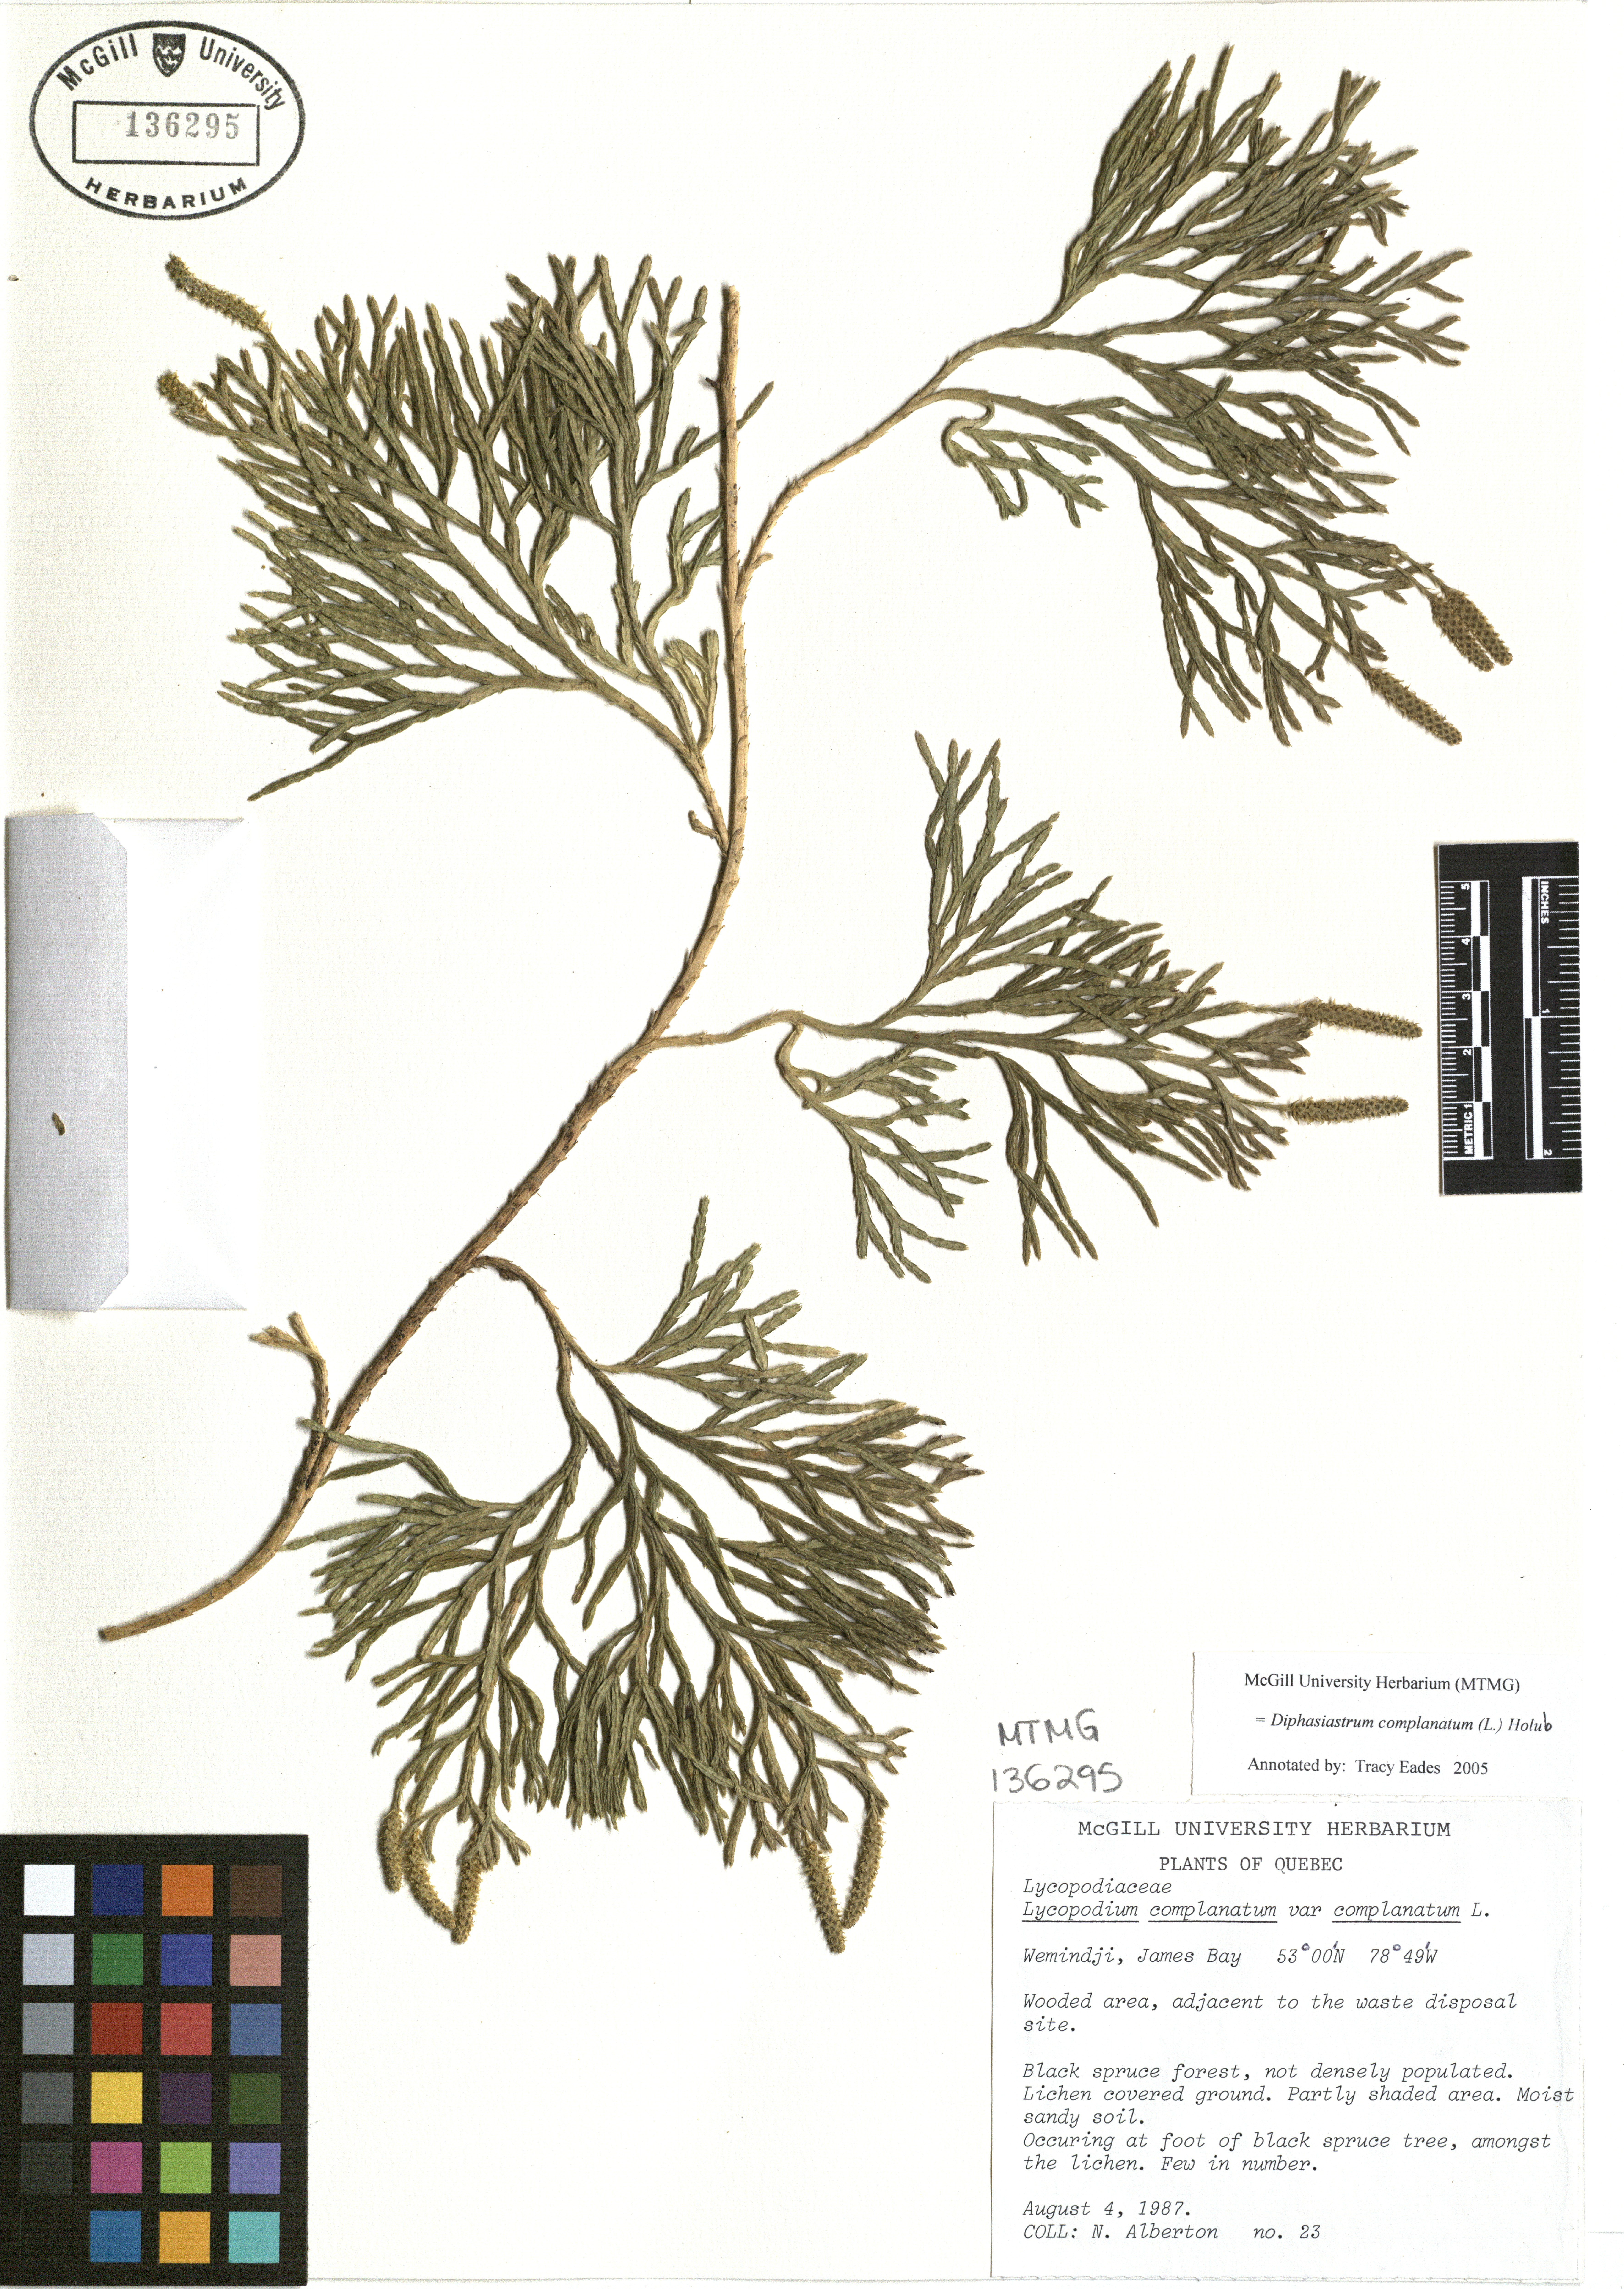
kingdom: Plantae
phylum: Tracheophyta
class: Lycopodiopsida
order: Lycopodiales
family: Lycopodiaceae
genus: Diphasiastrum
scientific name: Diphasiastrum complanatum
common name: Northern running-pine
